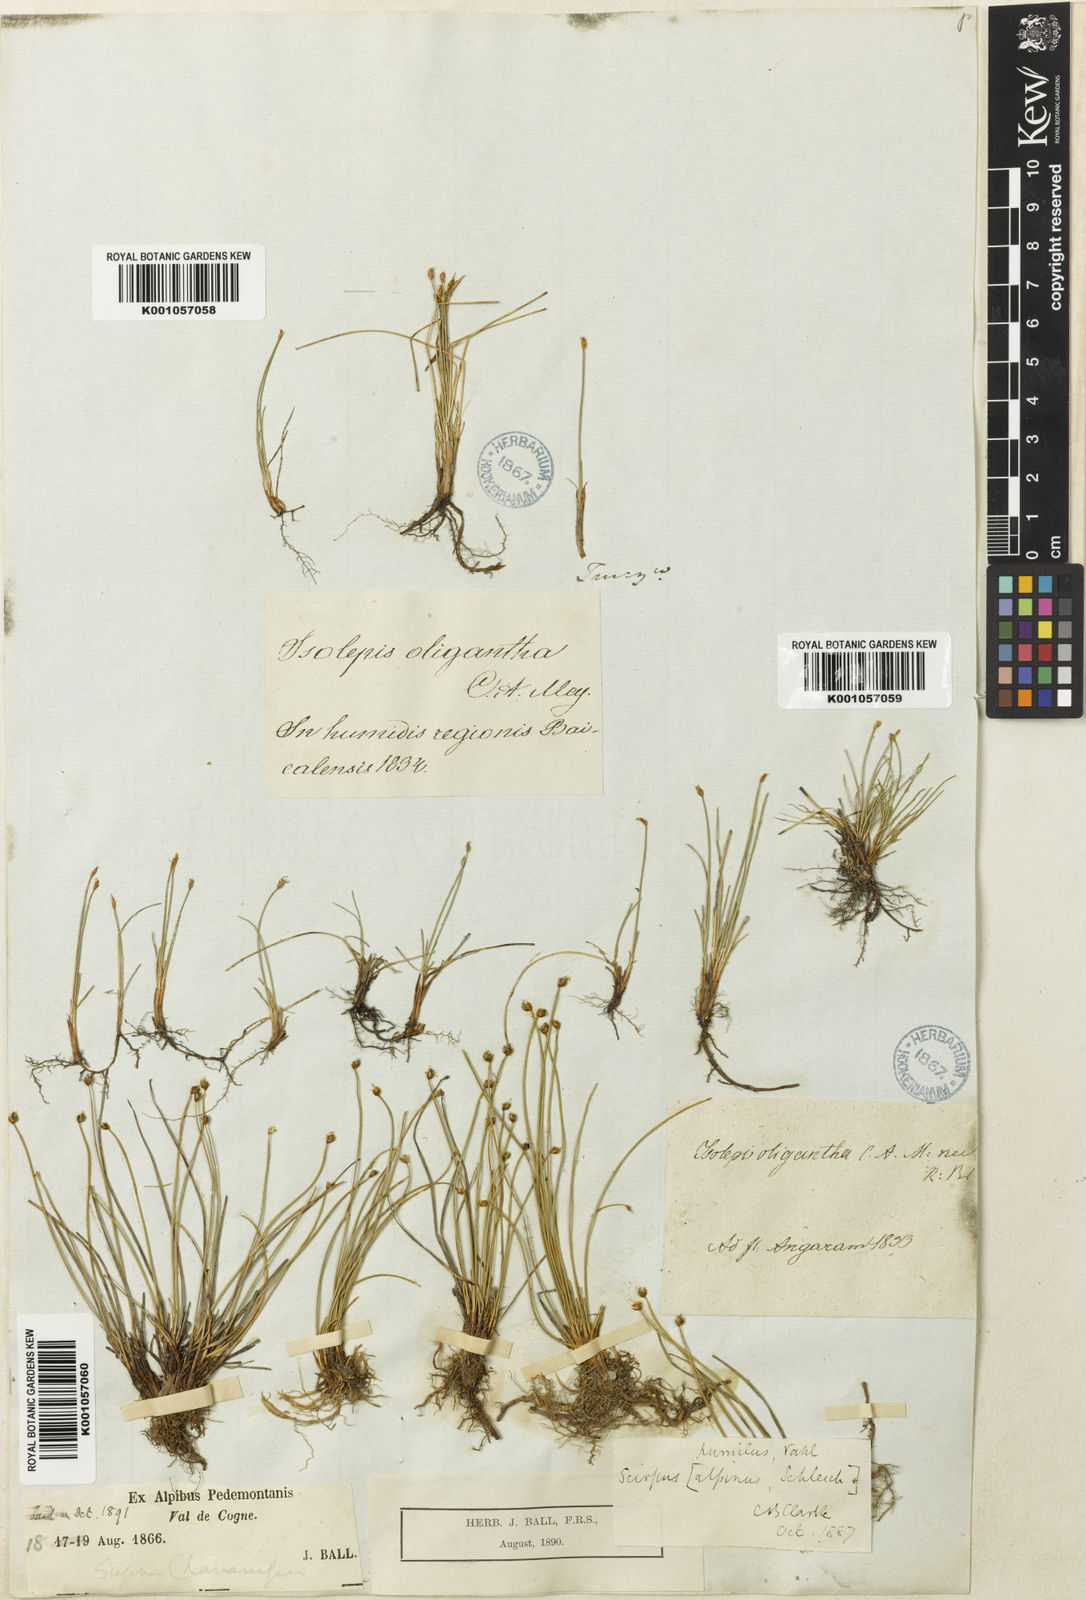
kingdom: Plantae
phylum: Tracheophyta
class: Liliopsida
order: Poales
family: Cyperaceae
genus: Trichophorum
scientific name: Trichophorum pumilum
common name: Rolland's bulrush
